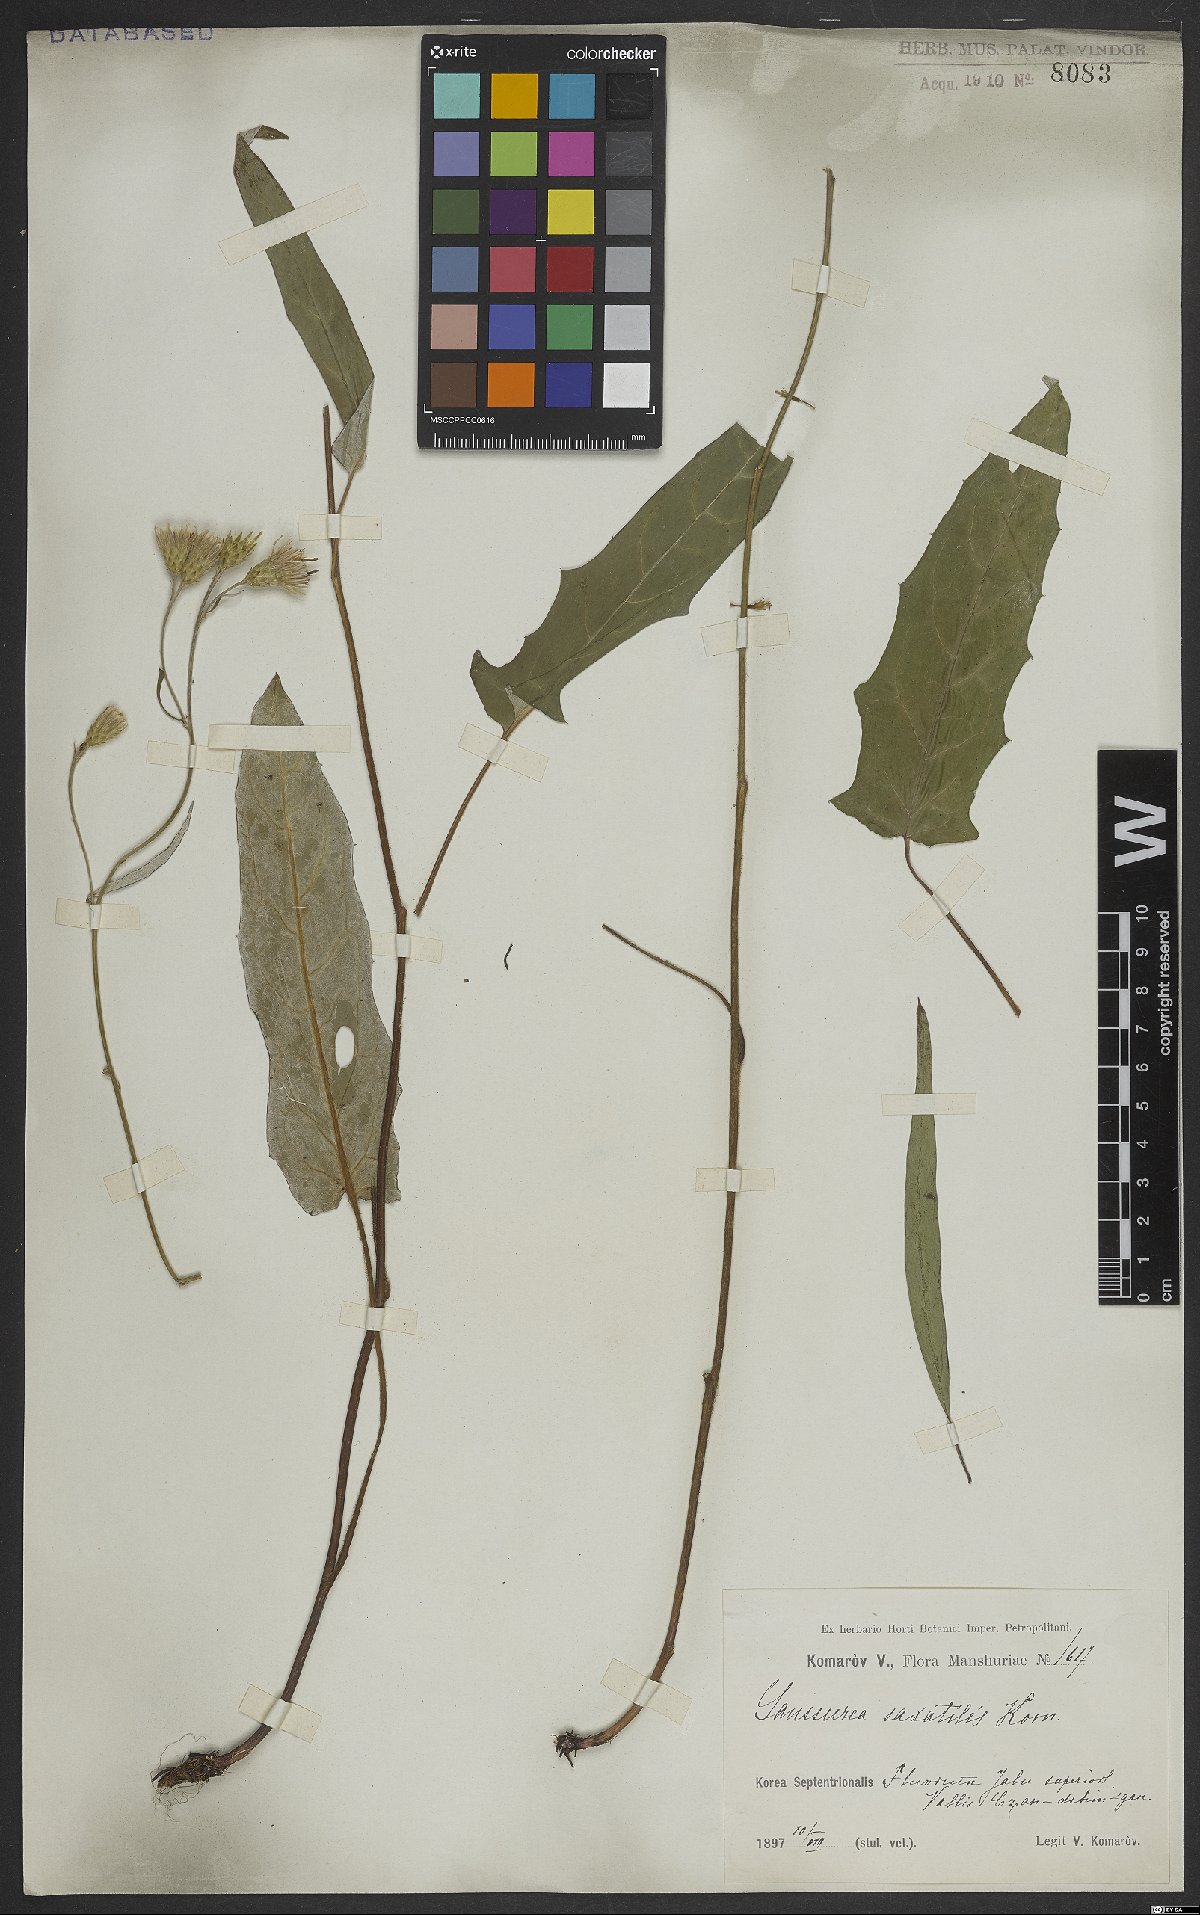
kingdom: Plantae
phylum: Tracheophyta
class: Magnoliopsida
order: Asterales
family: Asteraceae
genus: Saussurea
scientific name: Saussurea komaroviana
